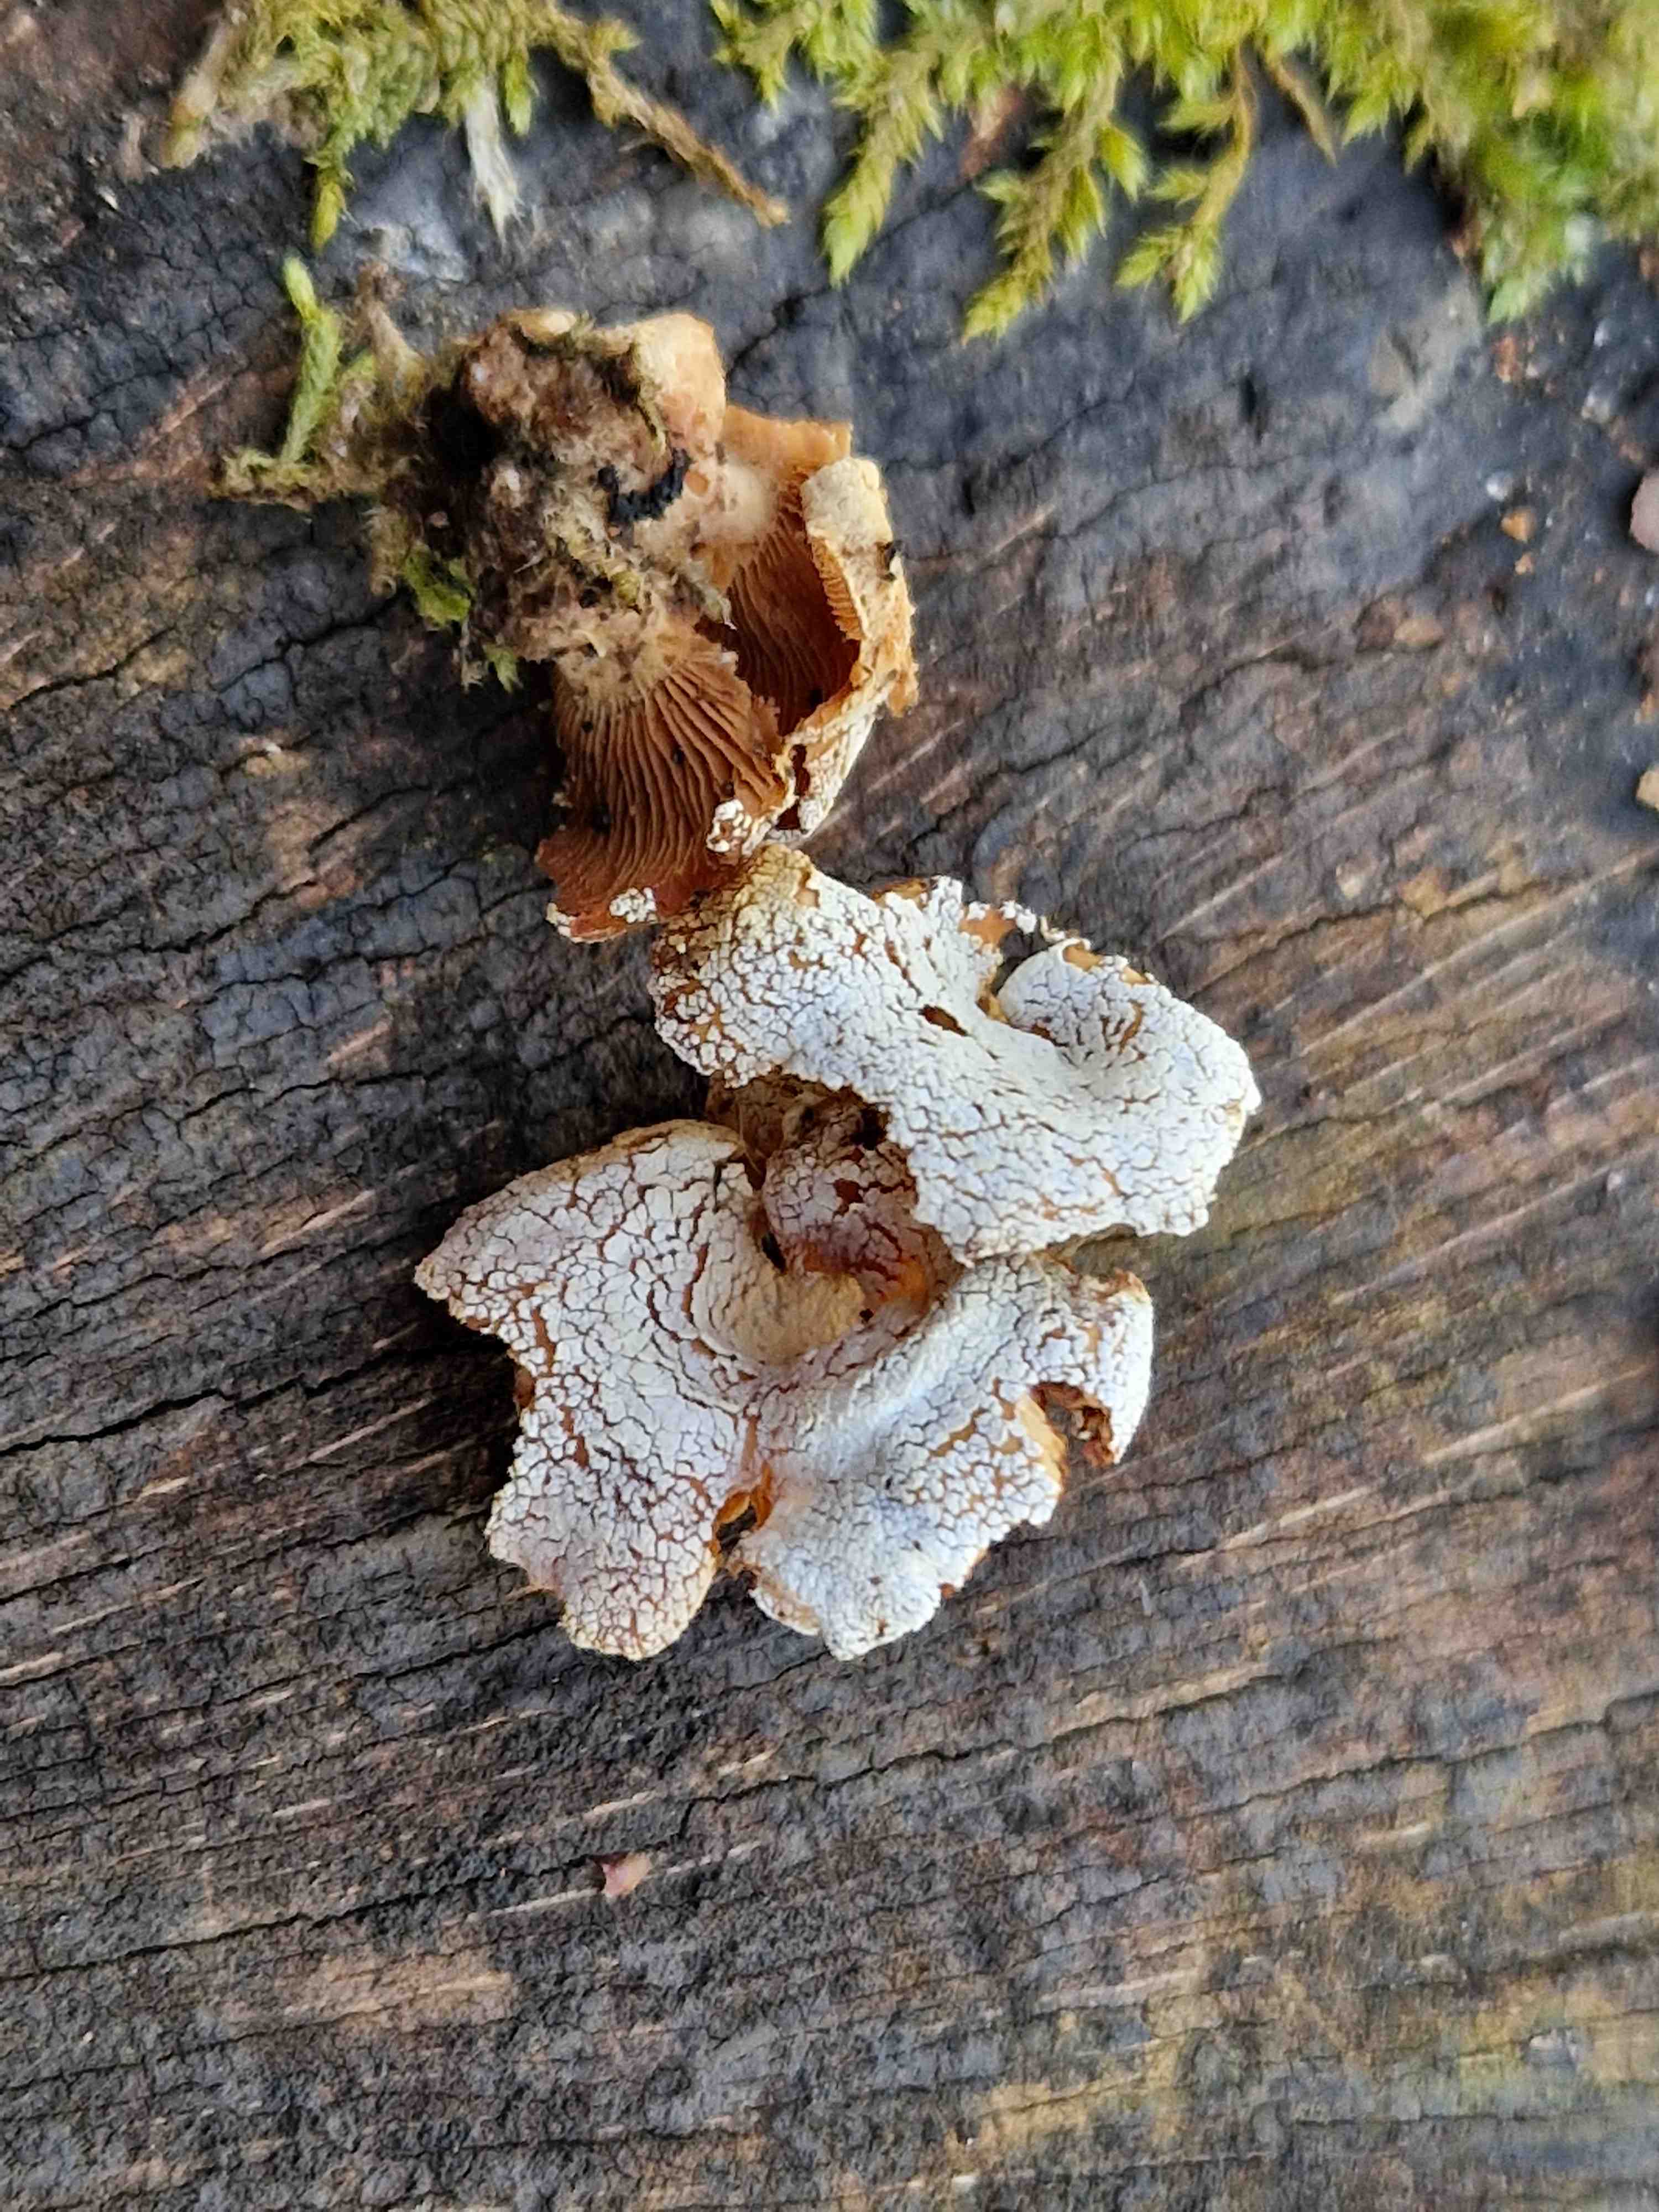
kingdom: Fungi
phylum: Basidiomycota
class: Agaricomycetes
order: Agaricales
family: Mycenaceae
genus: Panellus
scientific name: Panellus stipticus
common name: kliddet epaulethat
